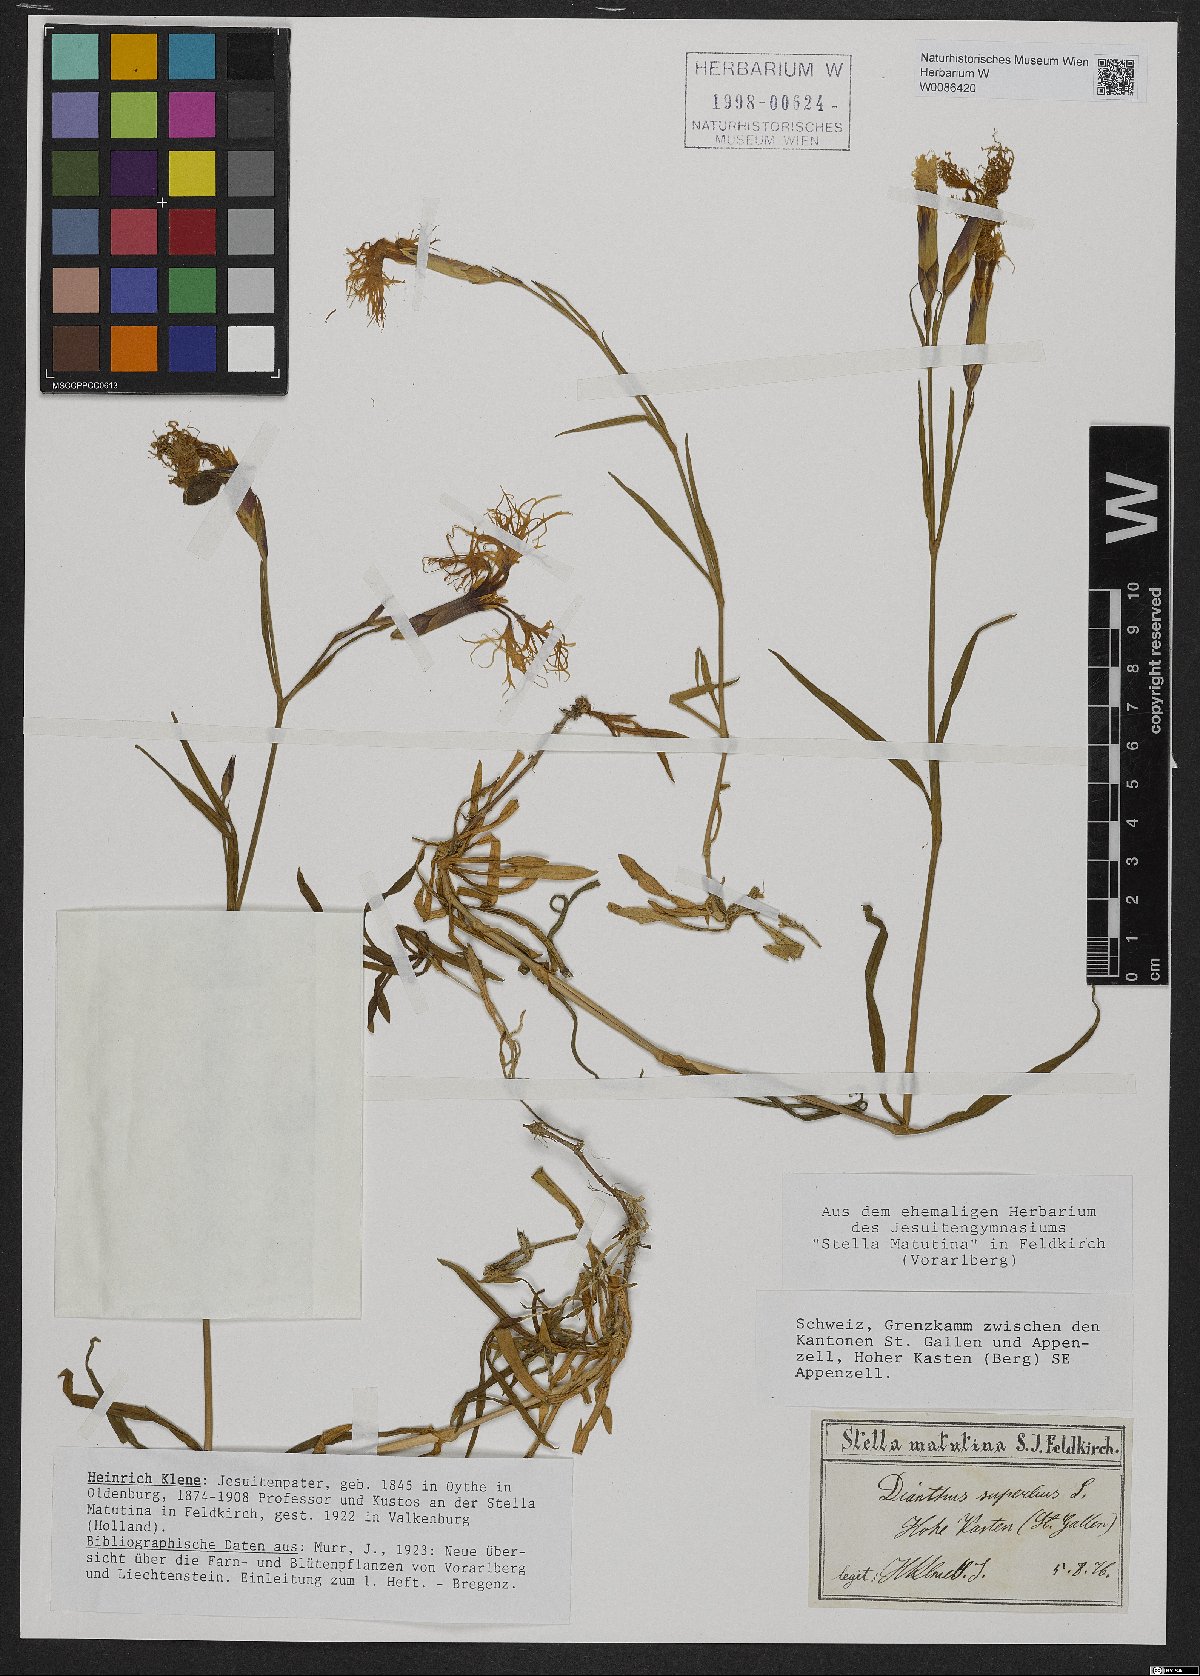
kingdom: Plantae
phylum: Tracheophyta
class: Magnoliopsida
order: Caryophyllales
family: Caryophyllaceae
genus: Dianthus
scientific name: Dianthus superbus
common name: Fringed pink
